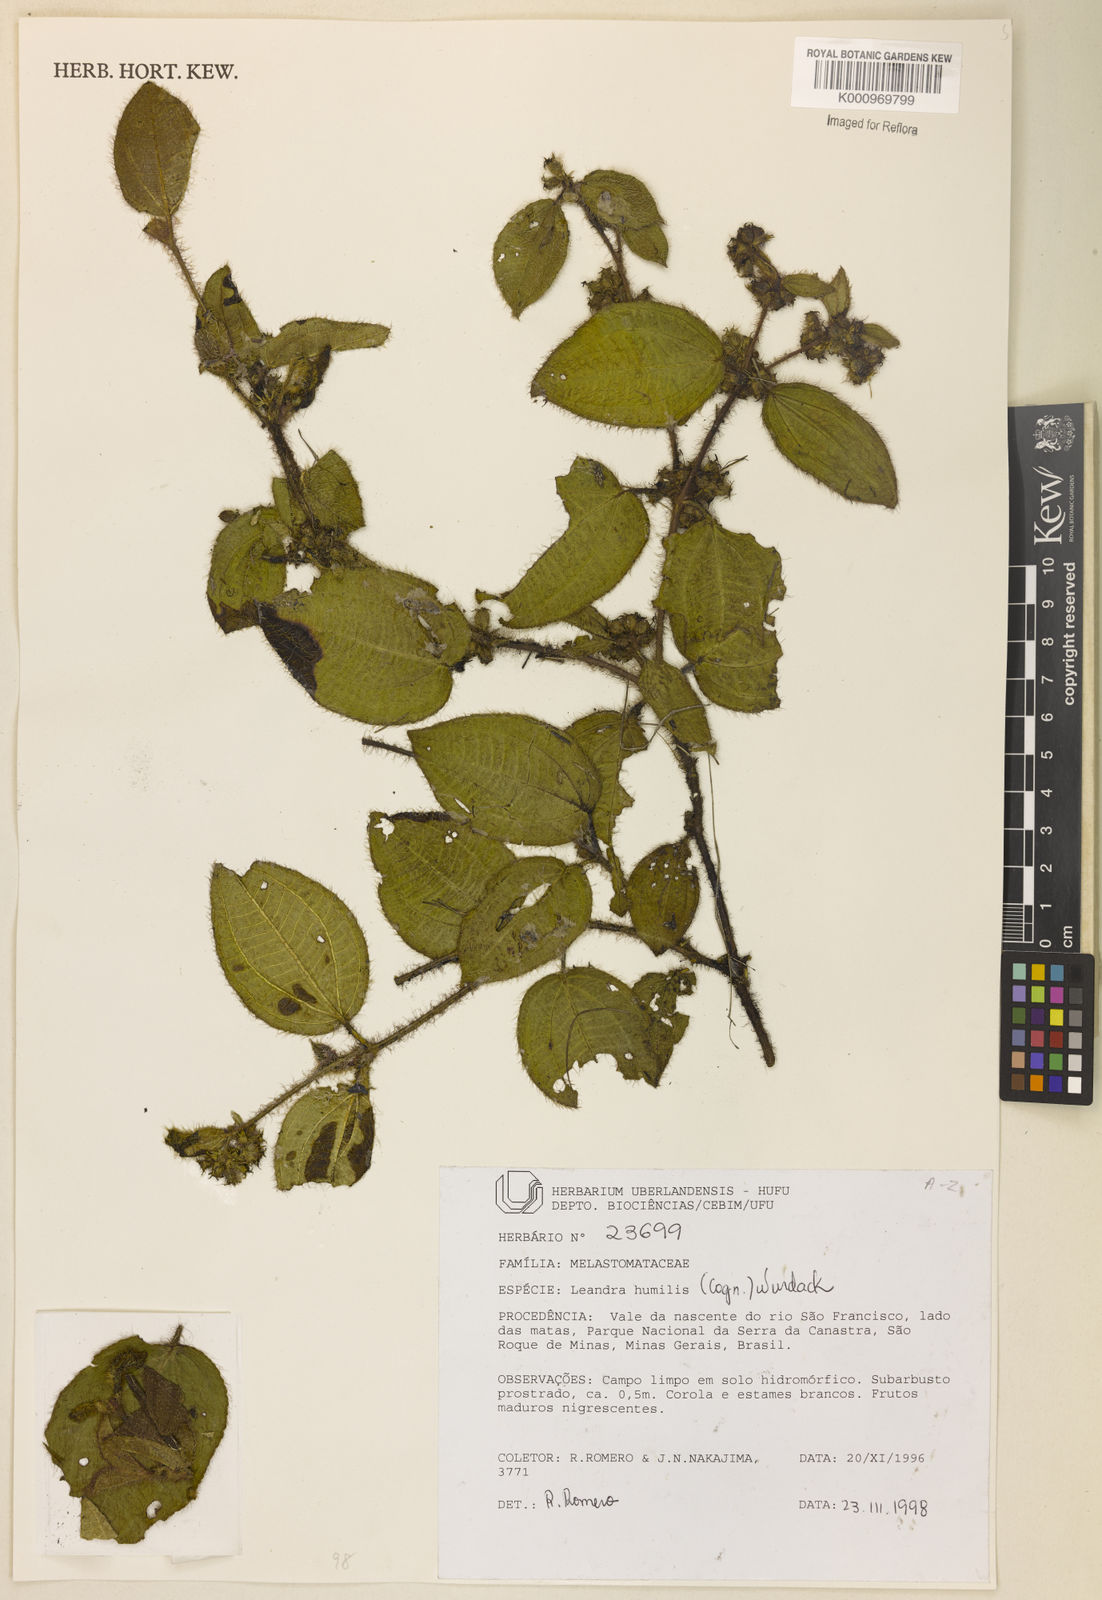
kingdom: Plantae
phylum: Tracheophyta
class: Magnoliopsida
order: Myrtales
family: Melastomataceae
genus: Miconia
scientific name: Miconia leahumilis
